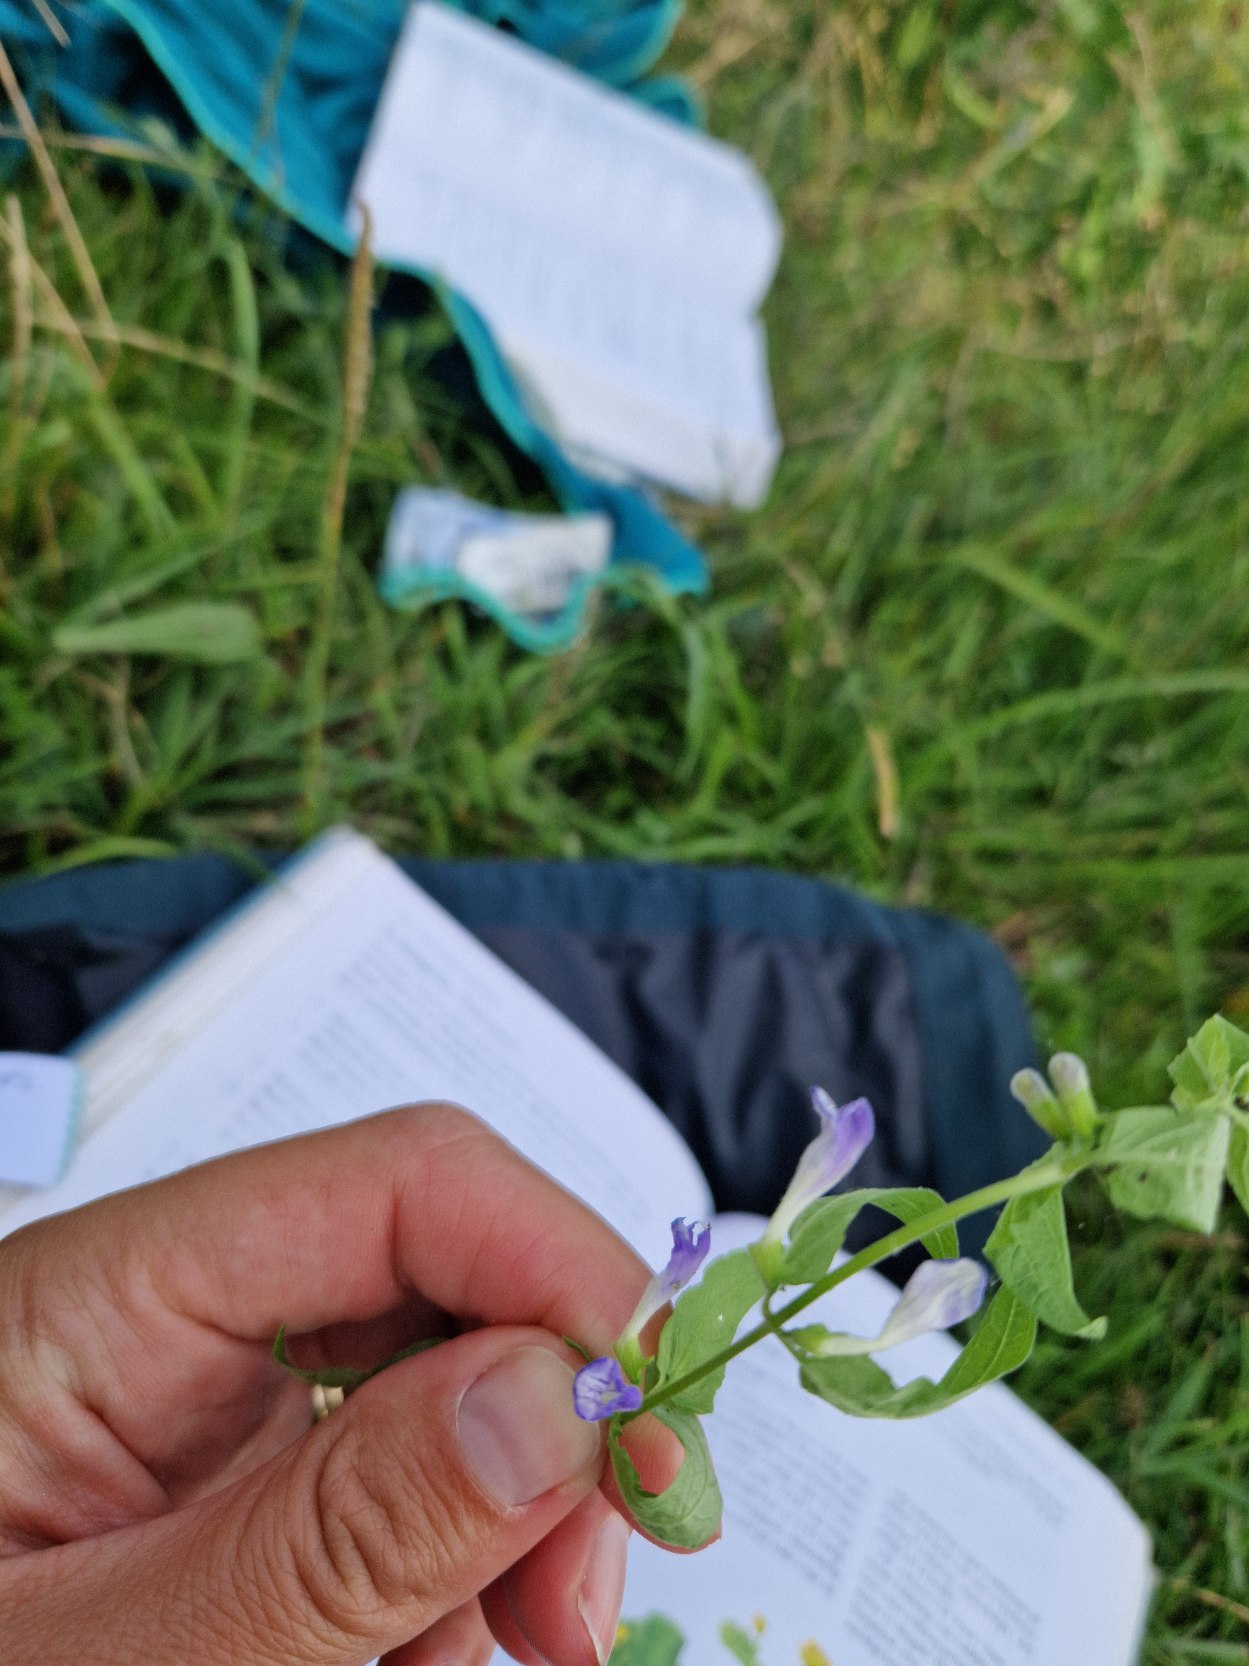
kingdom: Plantae
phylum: Tracheophyta
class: Magnoliopsida
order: Lamiales
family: Lamiaceae
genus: Scutellaria
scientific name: Scutellaria galericulata
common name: Almindelig skjolddrager
